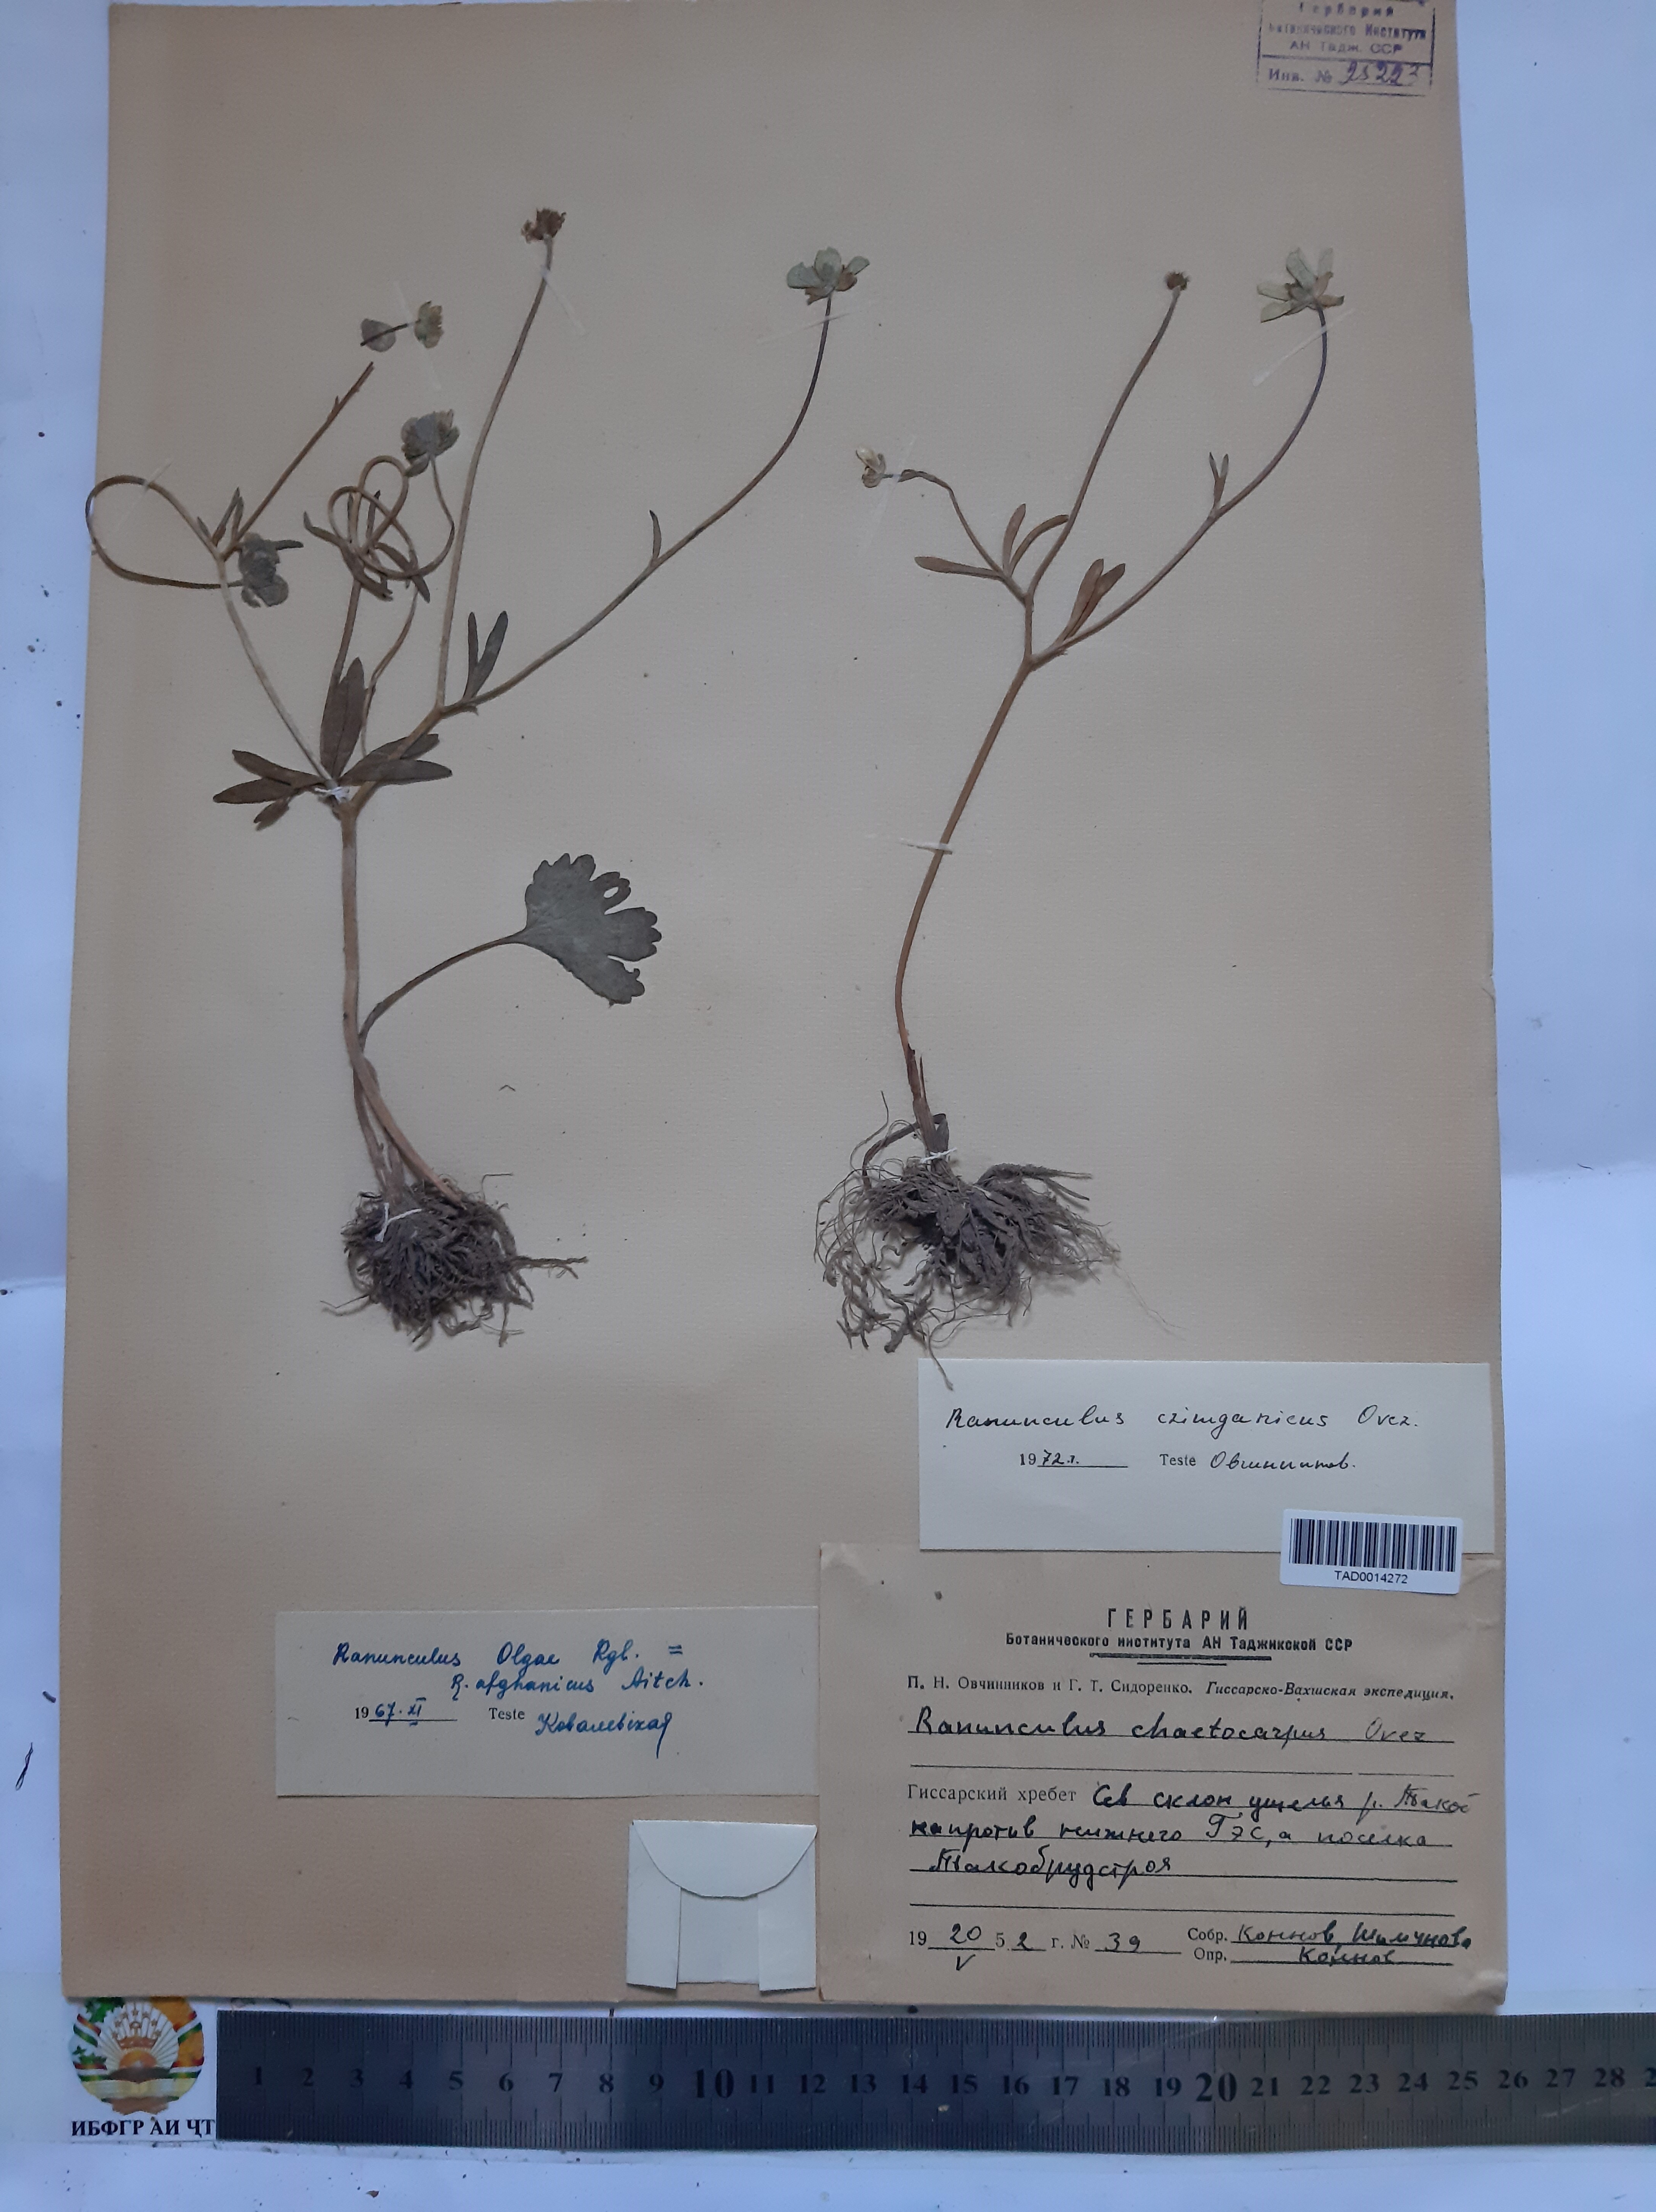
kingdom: Plantae
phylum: Tracheophyta
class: Magnoliopsida
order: Ranunculales
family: Ranunculaceae
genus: Ranunculus
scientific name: Ranunculus
